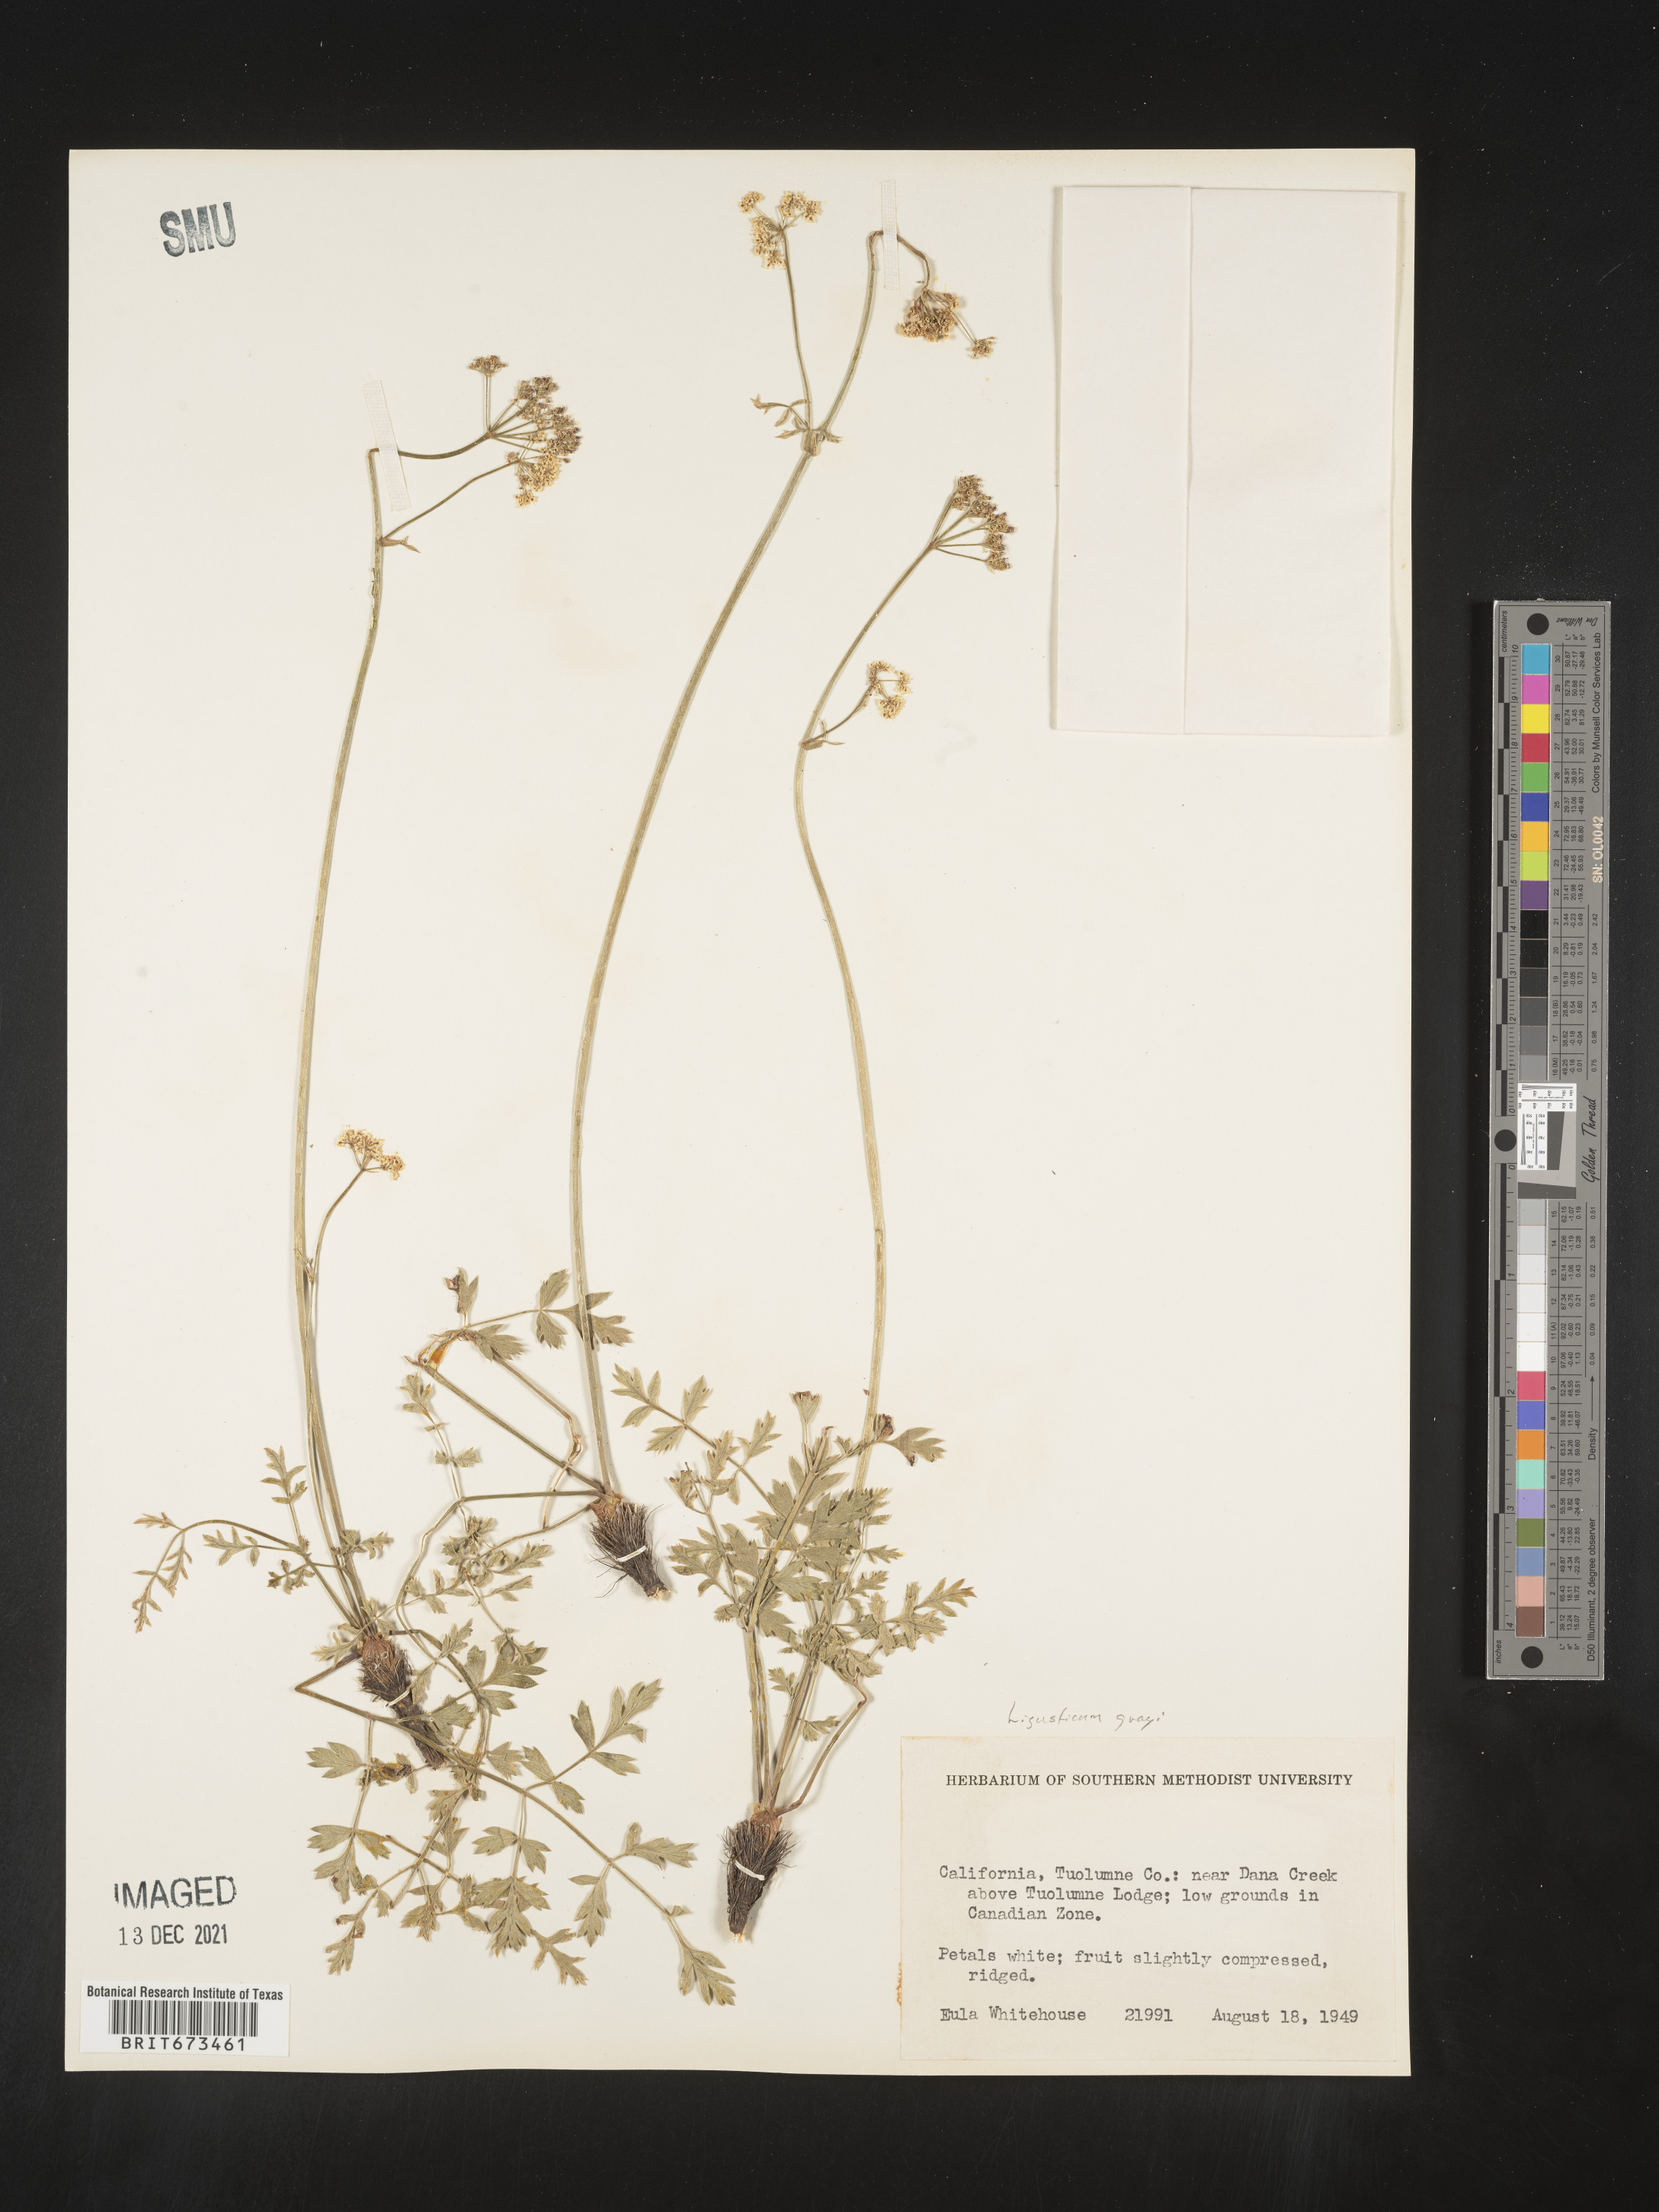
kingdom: Plantae
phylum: Tracheophyta
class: Magnoliopsida
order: Apiales
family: Apiaceae
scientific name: Apiaceae
